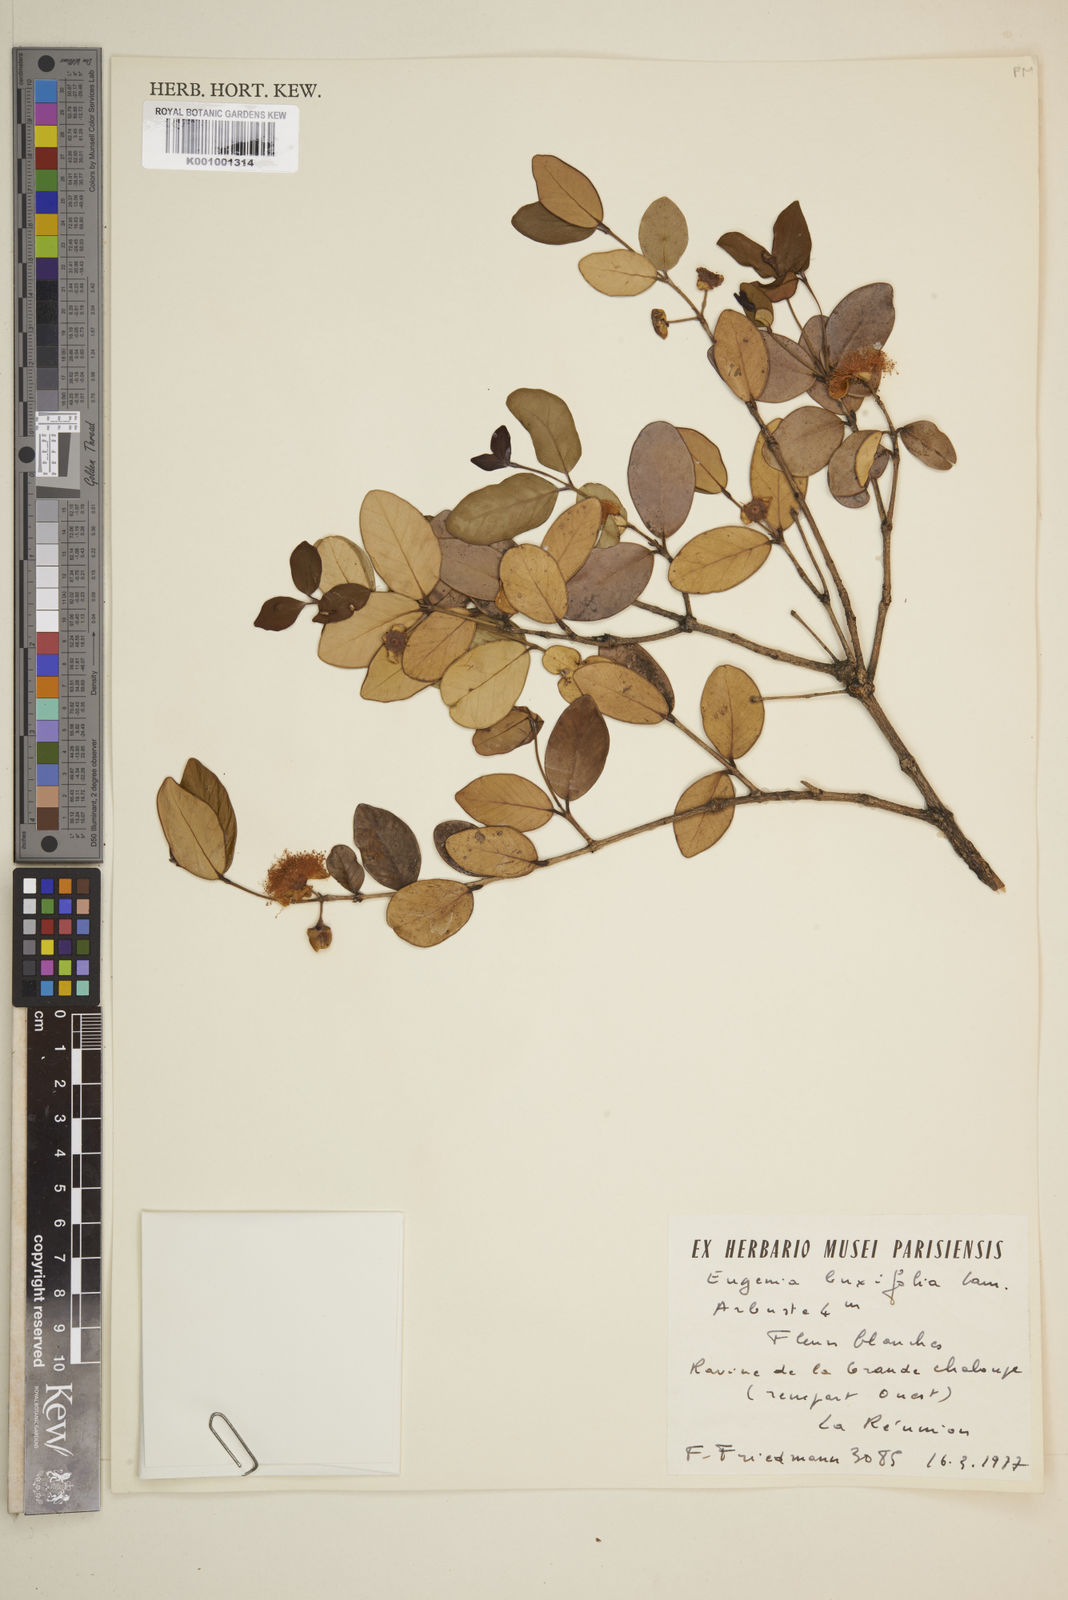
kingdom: Plantae
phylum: Tracheophyta
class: Magnoliopsida
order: Myrtales
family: Myrtaceae
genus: Eugenia
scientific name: Eugenia buxifolia
